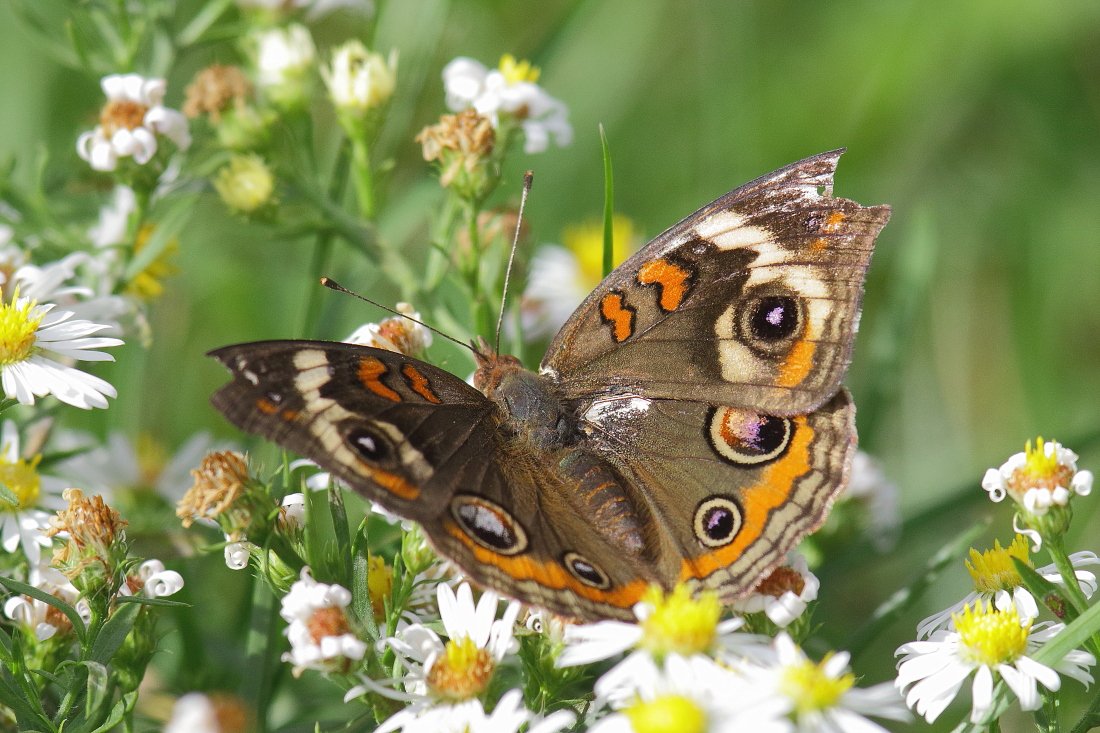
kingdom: Animalia
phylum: Arthropoda
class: Insecta
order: Lepidoptera
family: Nymphalidae
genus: Junonia
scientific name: Junonia coenia
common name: Common Buckeye
